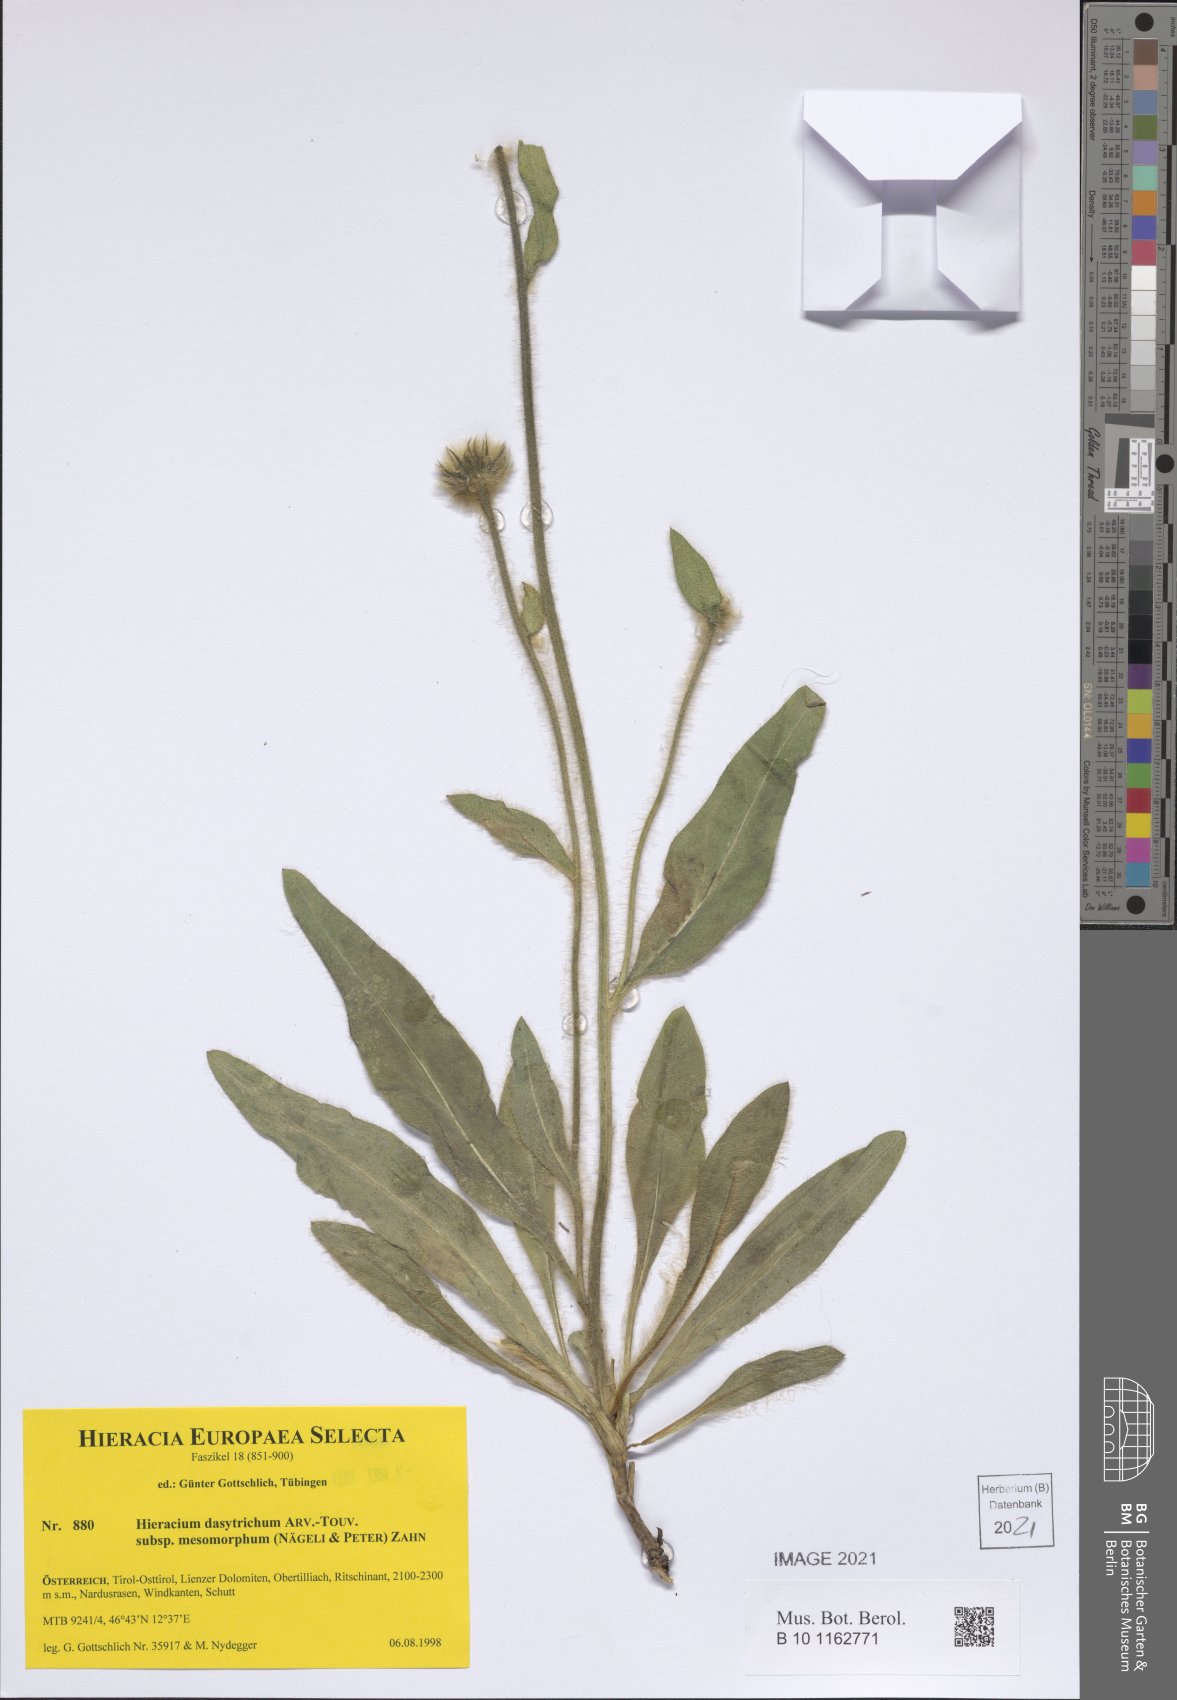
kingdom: Plantae
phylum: Tracheophyta
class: Magnoliopsida
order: Asterales
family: Asteraceae
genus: Hieracium
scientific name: Hieracium dasytrichum
